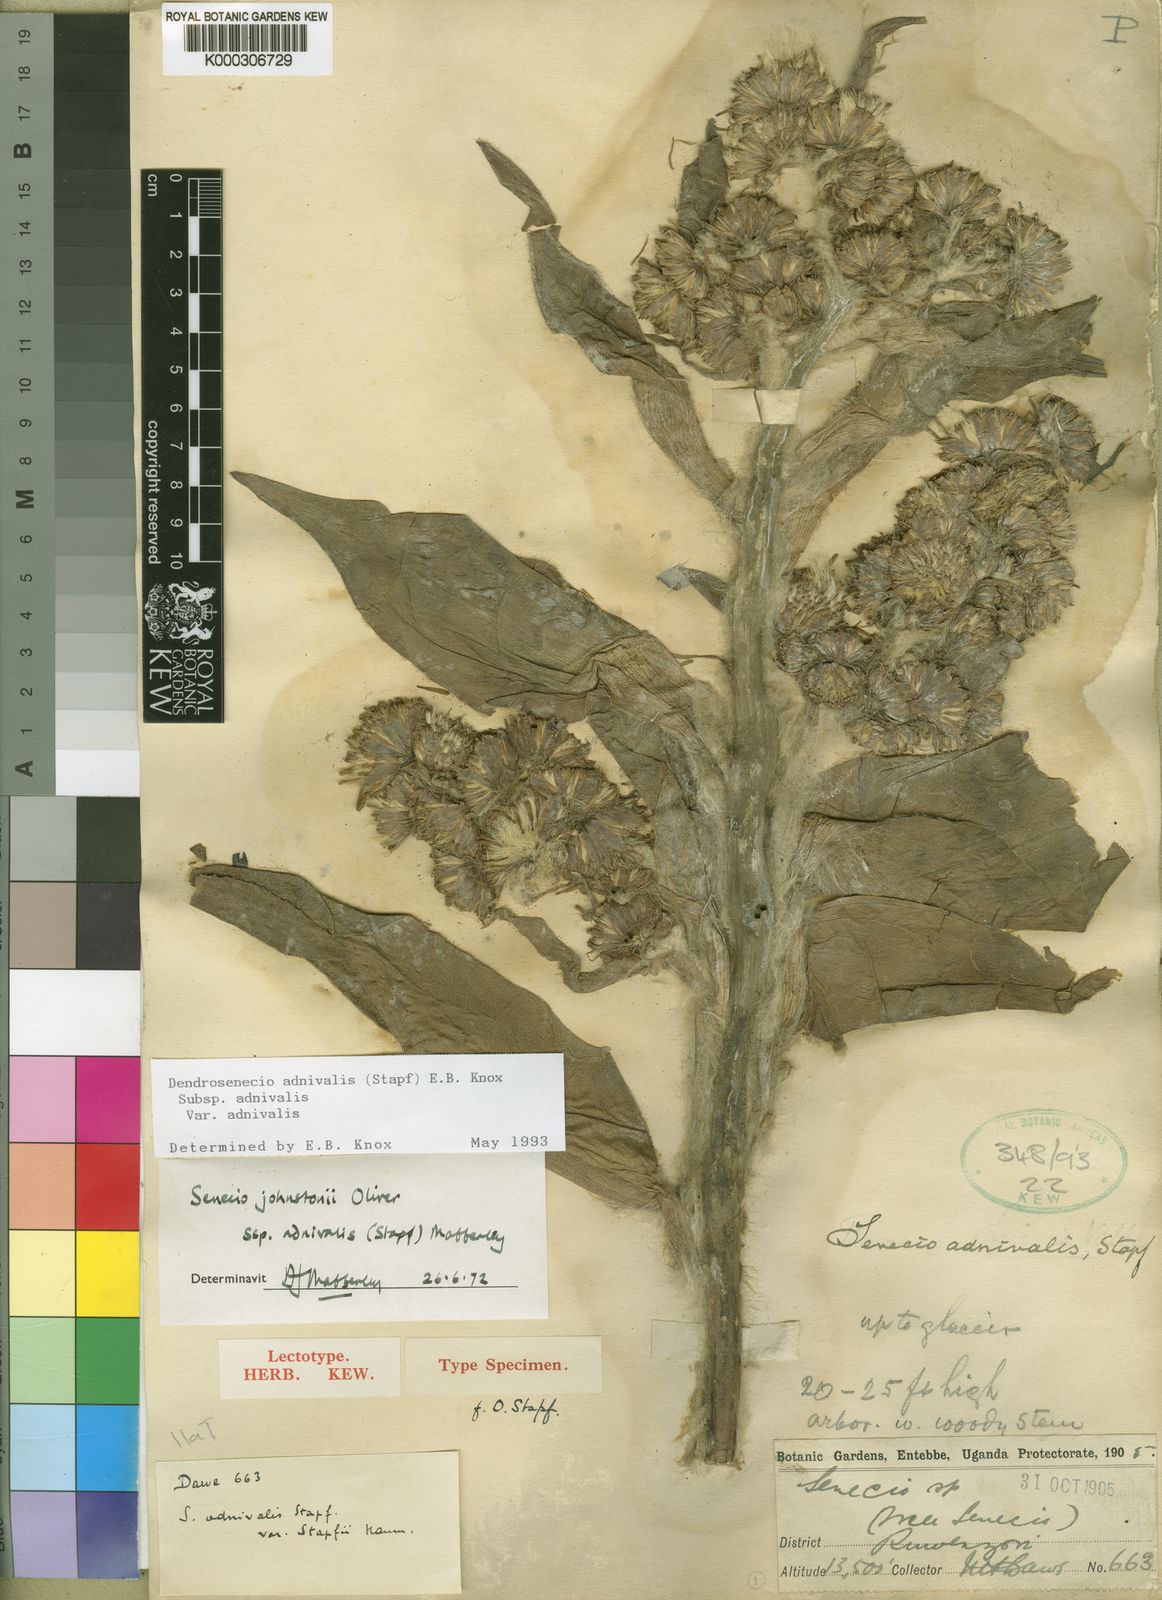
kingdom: Plantae
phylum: Tracheophyta
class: Magnoliopsida
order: Asterales
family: Asteraceae
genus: Dendrosenecio
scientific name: Dendrosenecio adnivalis
